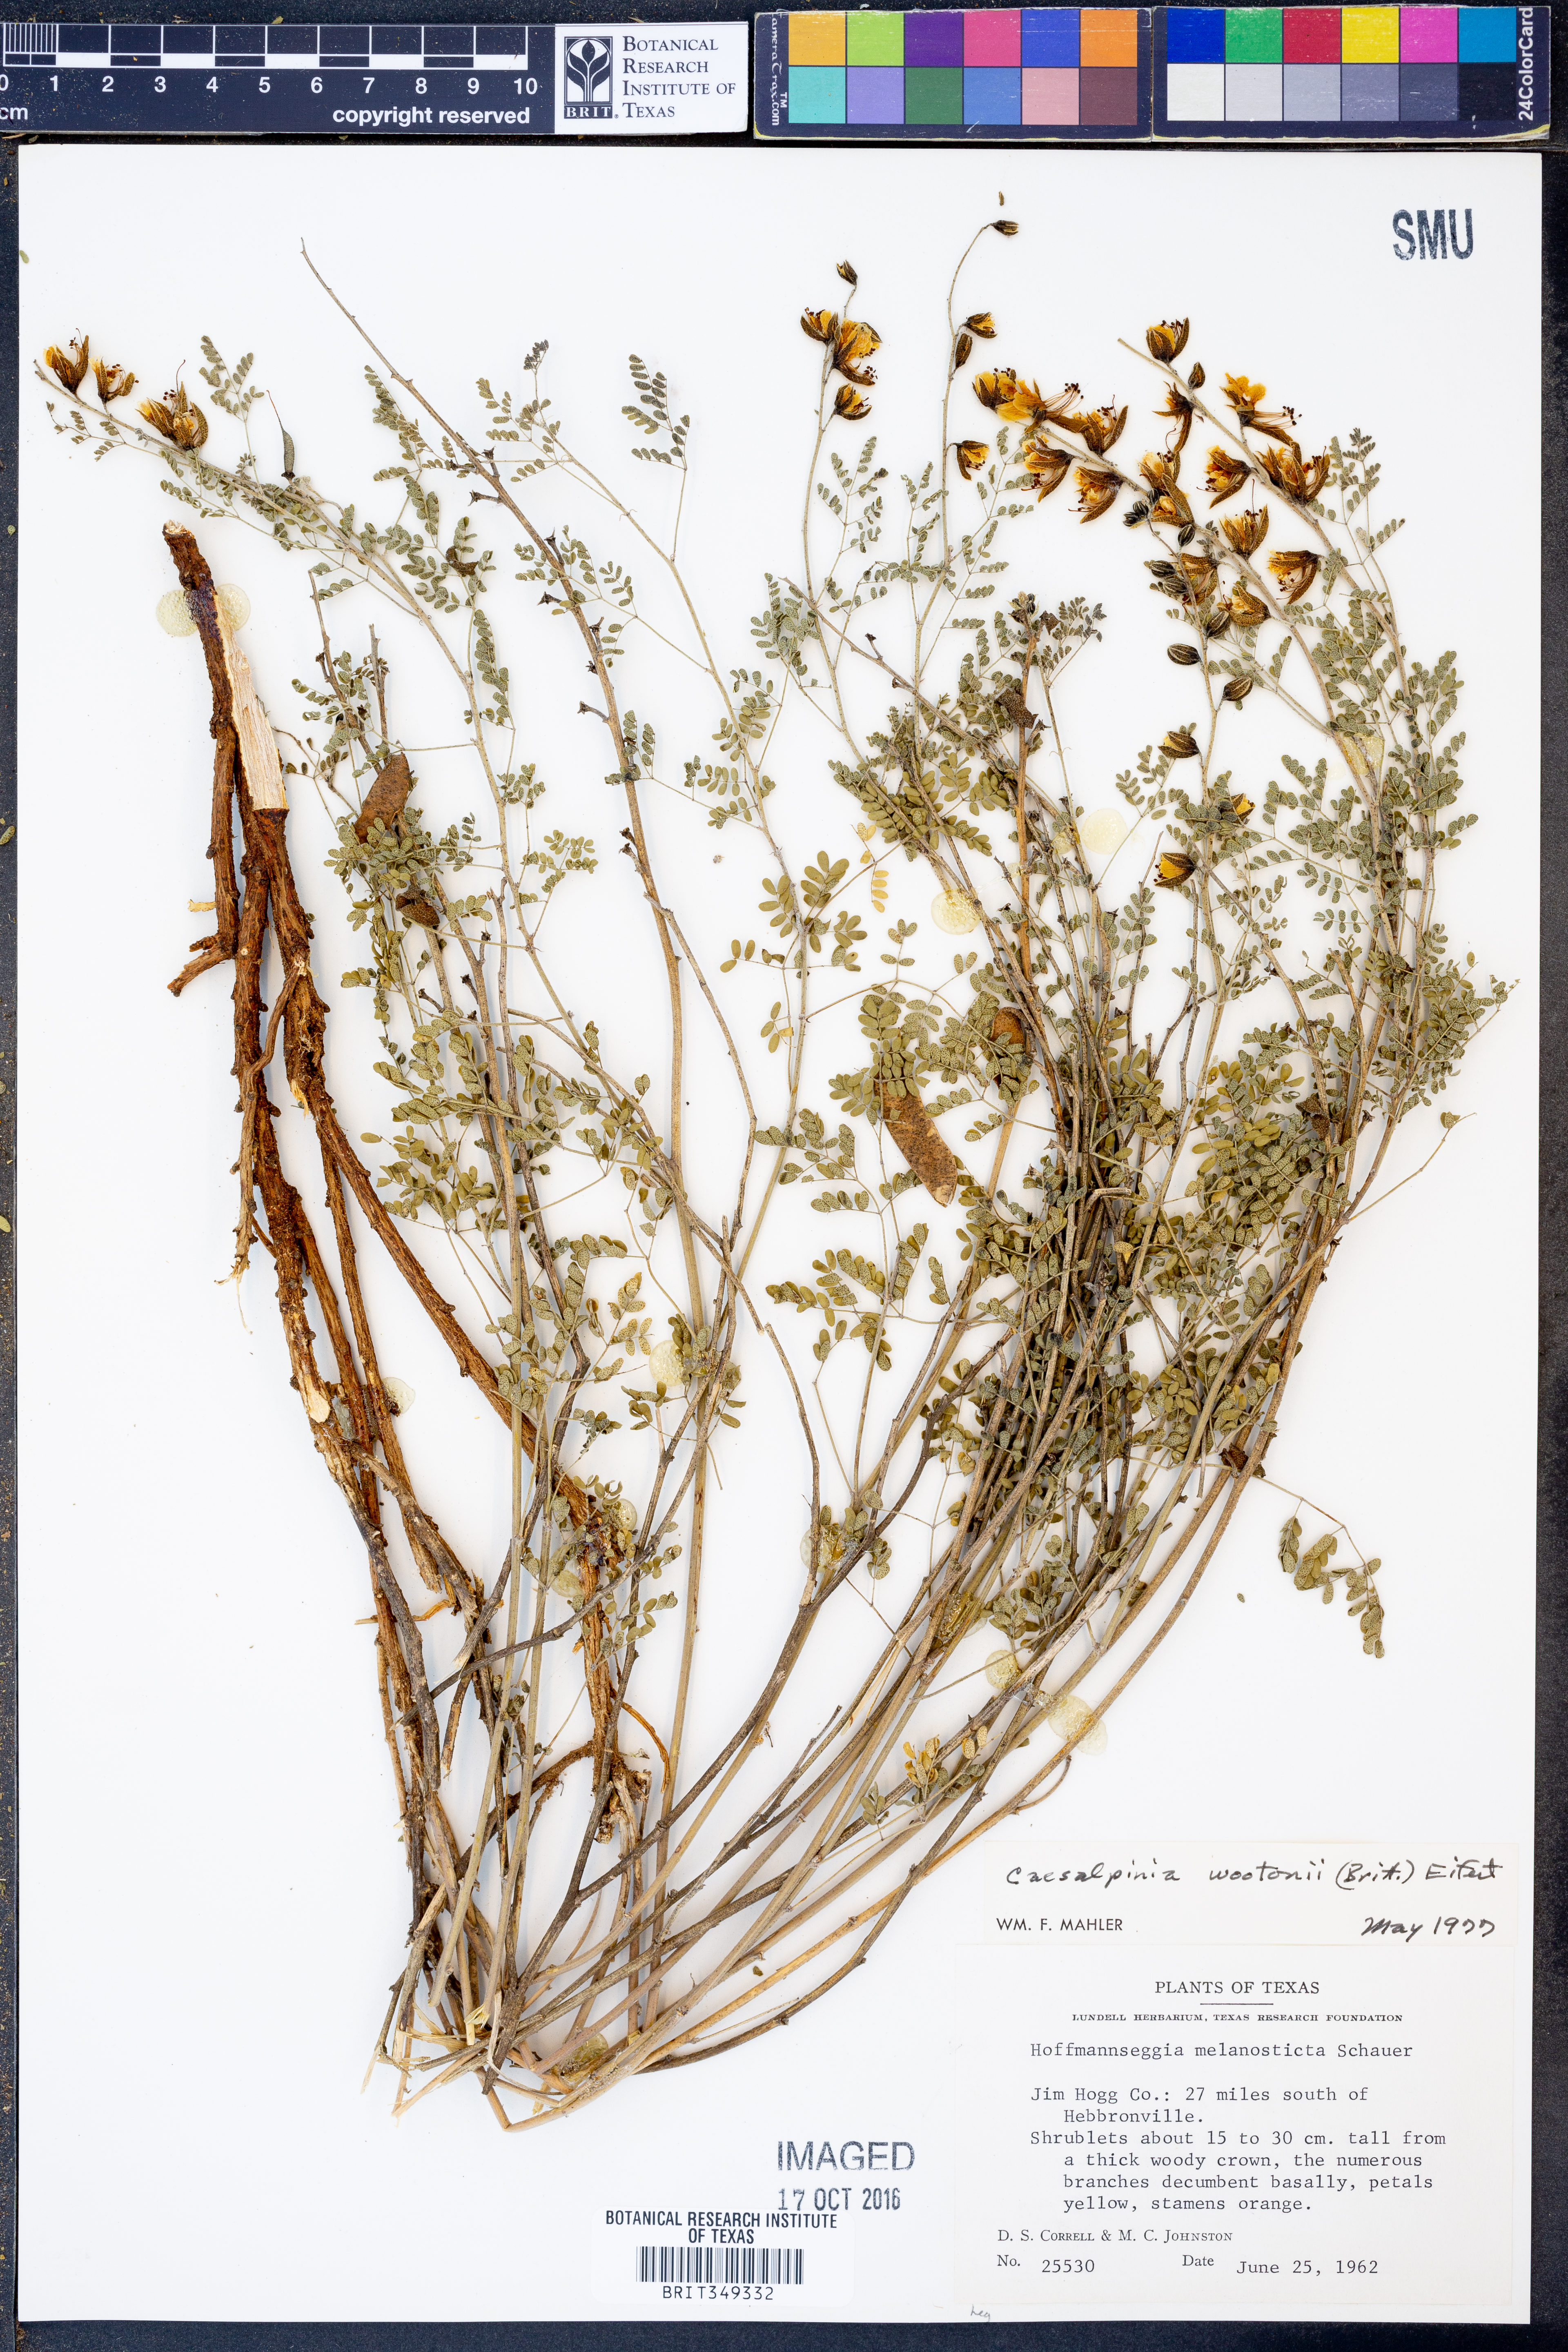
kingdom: Plantae
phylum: Tracheophyta
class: Magnoliopsida
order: Fabales
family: Fabaceae
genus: Pomaria
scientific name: Pomaria wootonii
